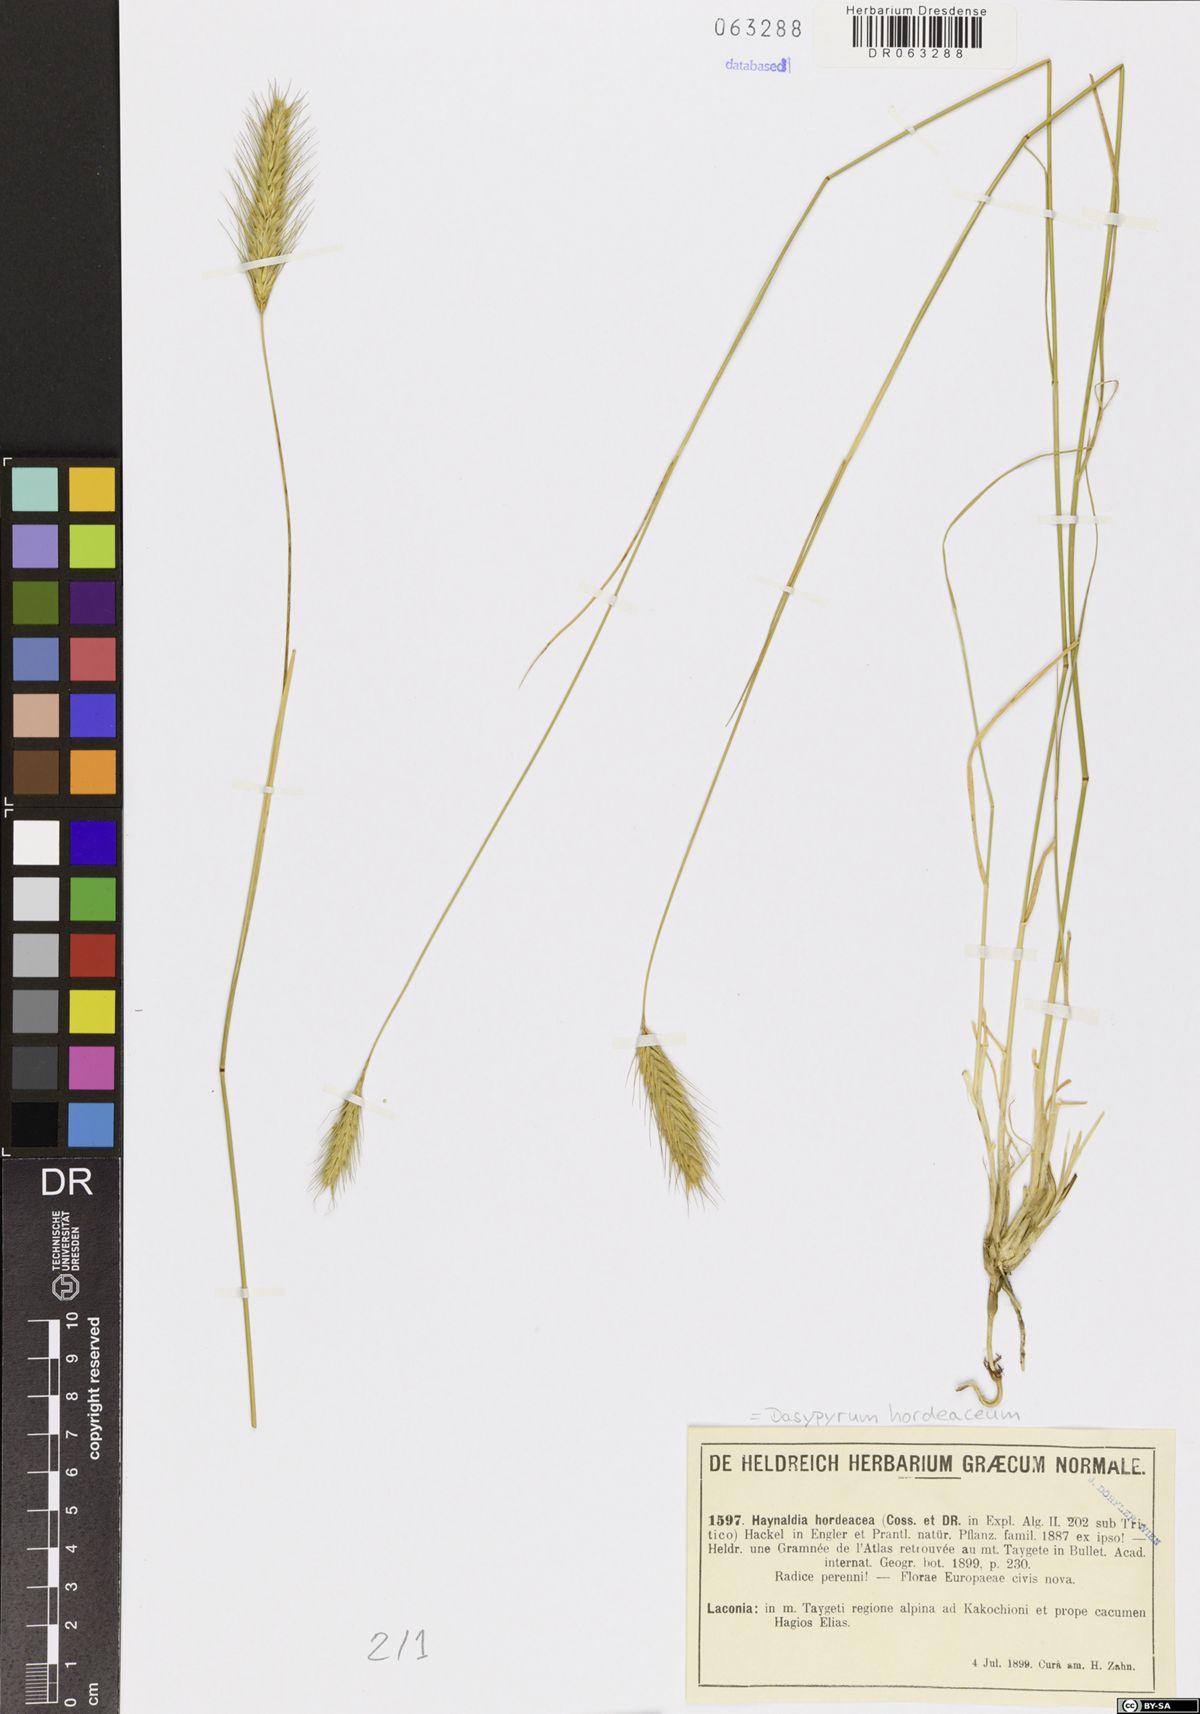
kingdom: Plantae
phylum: Tracheophyta
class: Liliopsida
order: Poales
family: Poaceae
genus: Dasypyrum
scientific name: Dasypyrum hordeaceum
